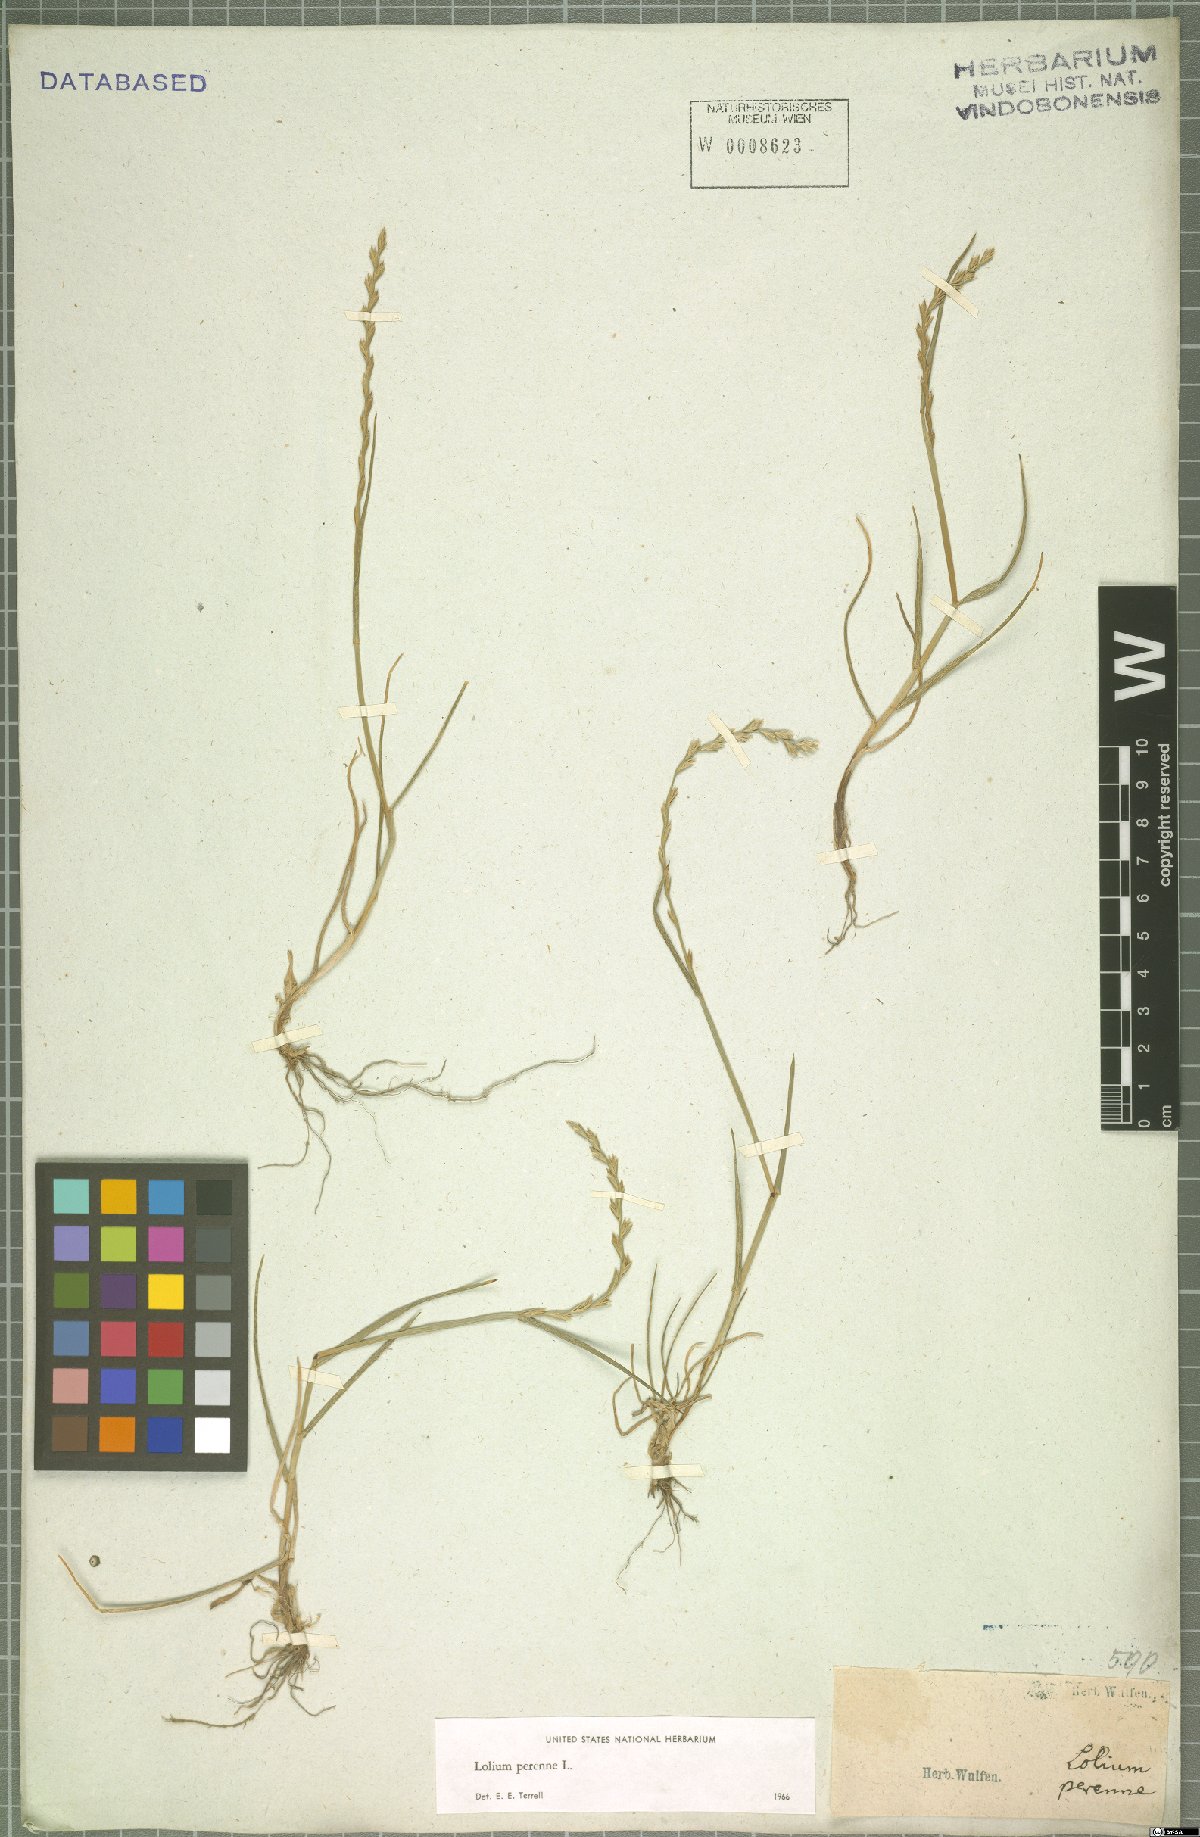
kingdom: Plantae
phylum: Tracheophyta
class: Liliopsida
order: Poales
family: Poaceae
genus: Lolium
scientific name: Lolium perenne
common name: Perennial ryegrass
